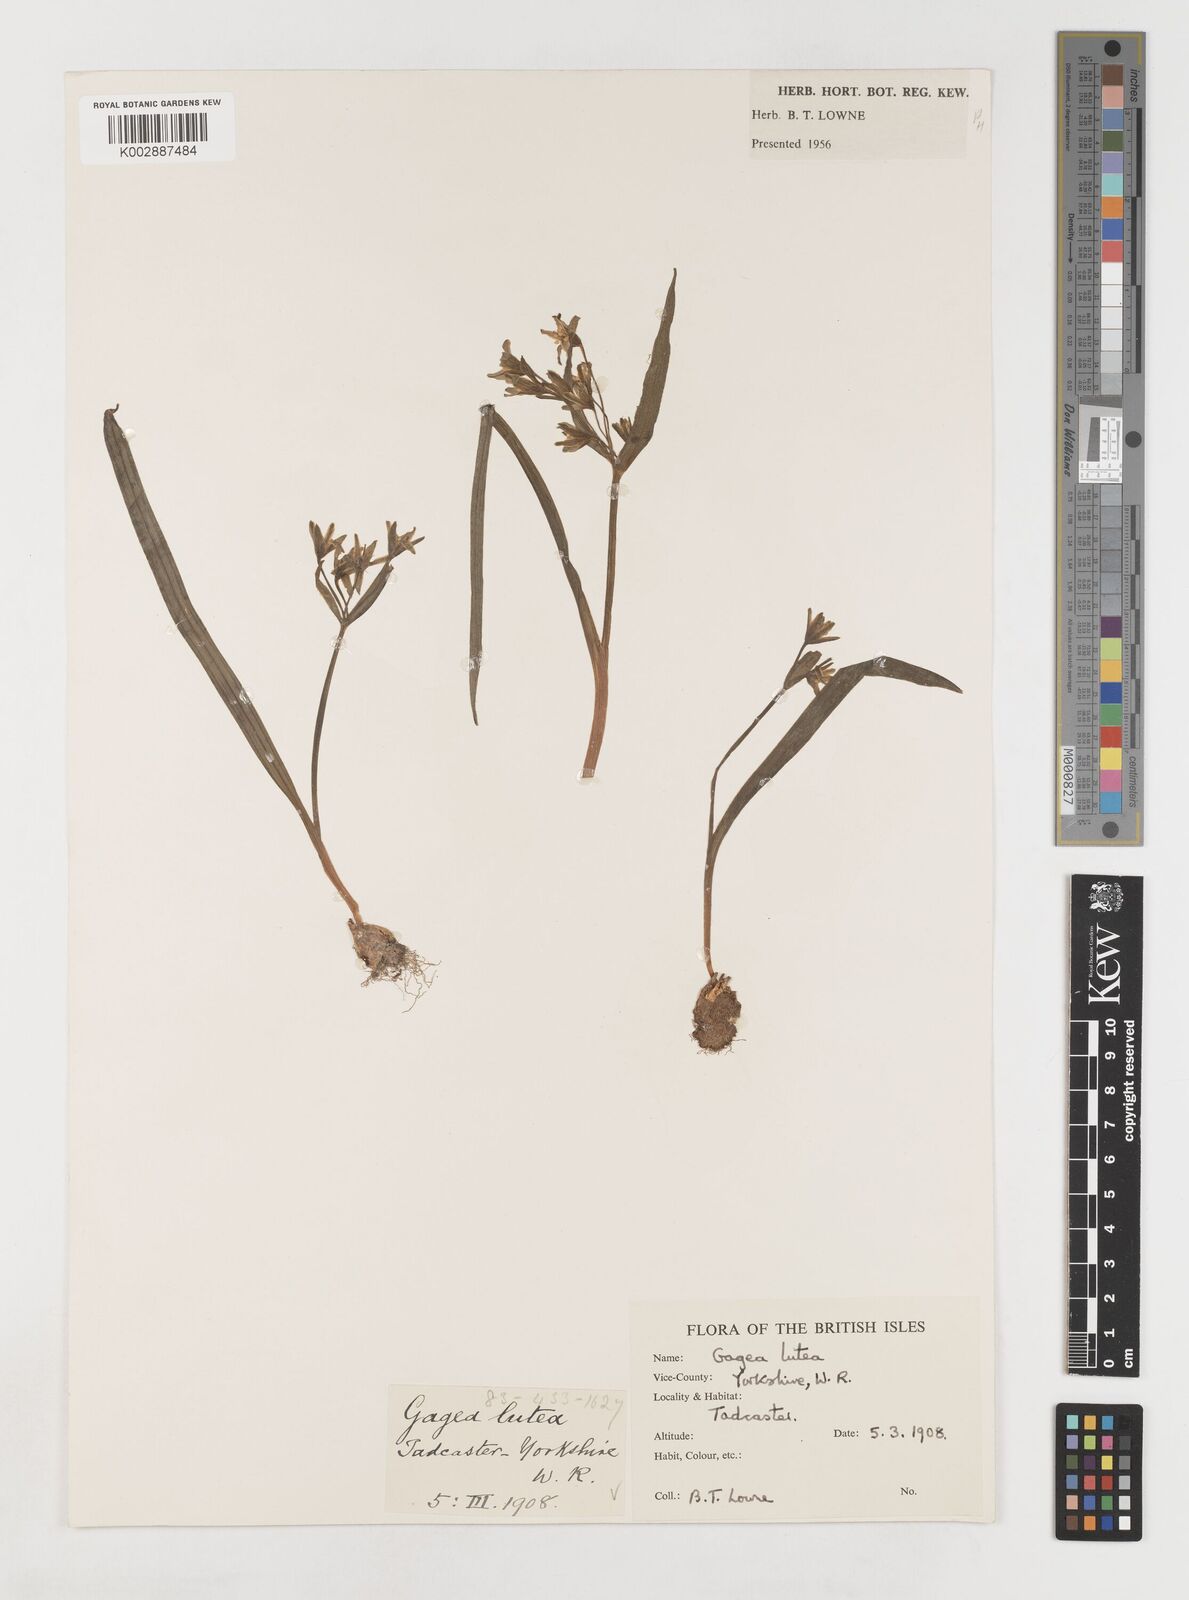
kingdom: Plantae
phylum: Tracheophyta
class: Liliopsida
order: Liliales
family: Liliaceae
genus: Gagea
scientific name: Gagea lutea
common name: Yellow star-of-bethlehem
